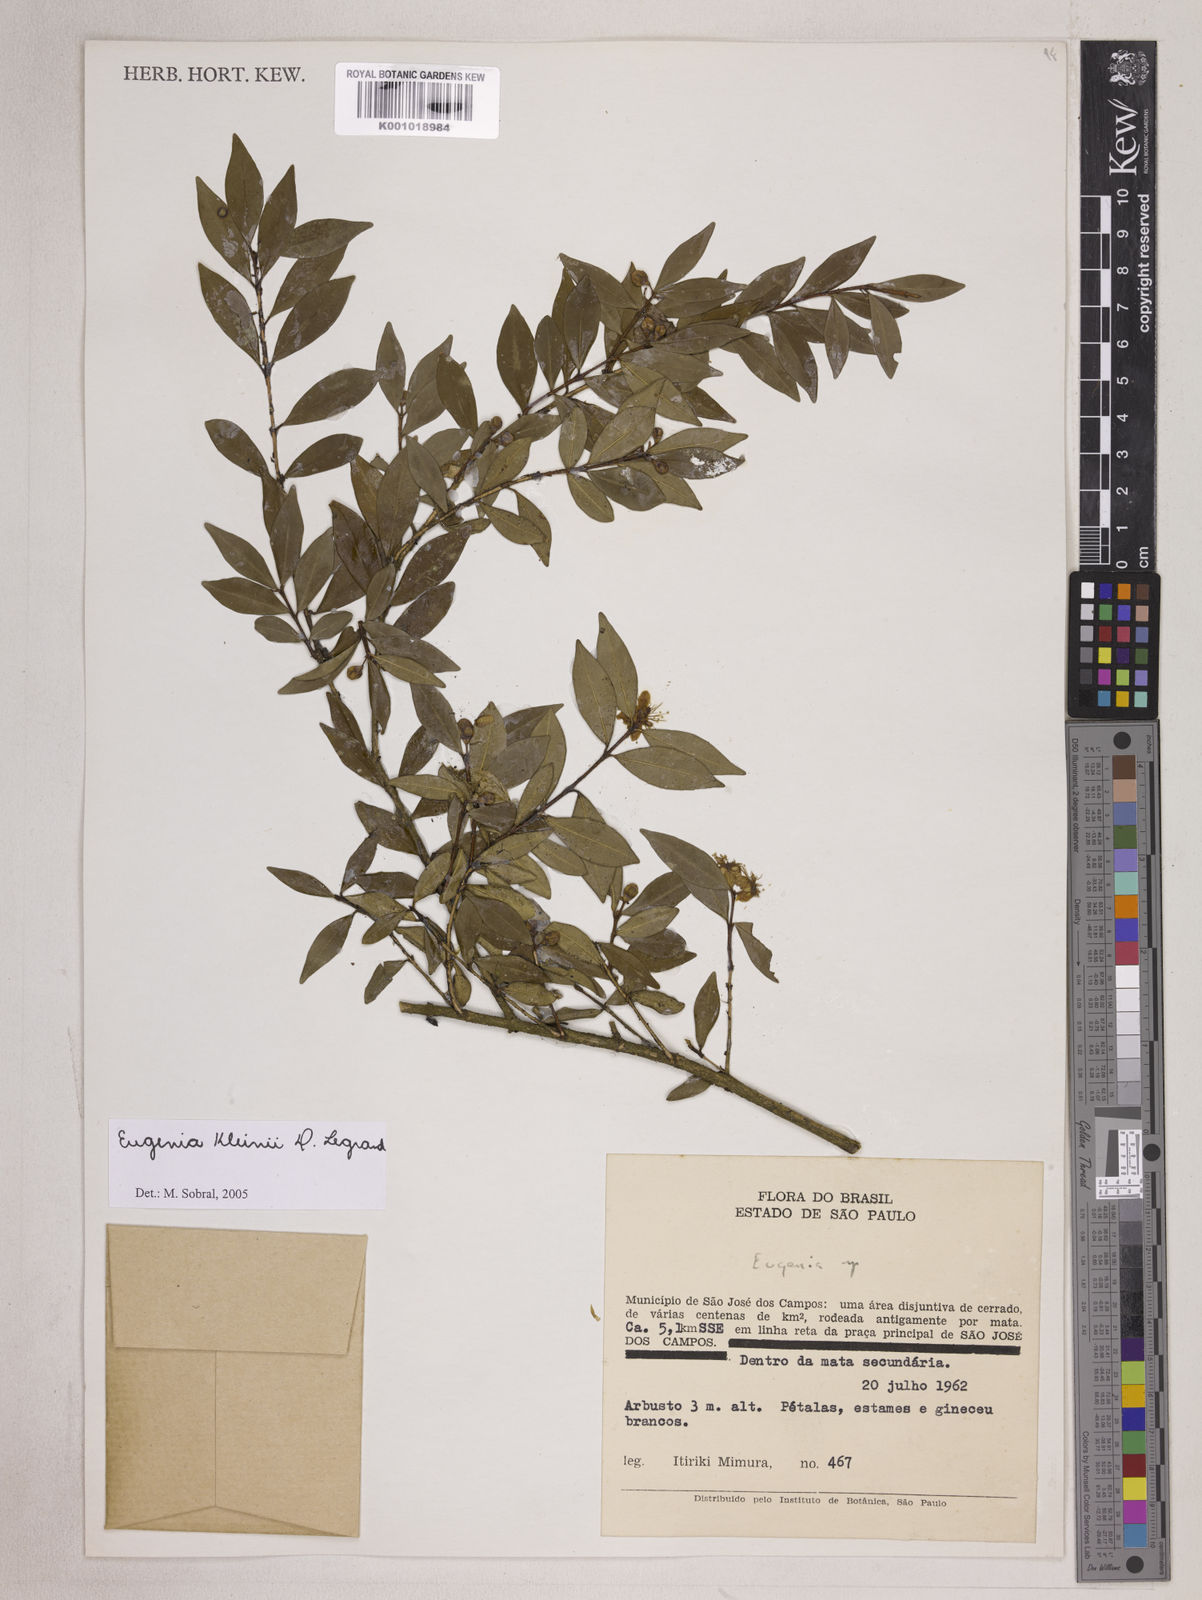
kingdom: Plantae
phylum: Tracheophyta
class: Magnoliopsida
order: Myrtales
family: Myrtaceae
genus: Eugenia
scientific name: Eugenia kleinii
